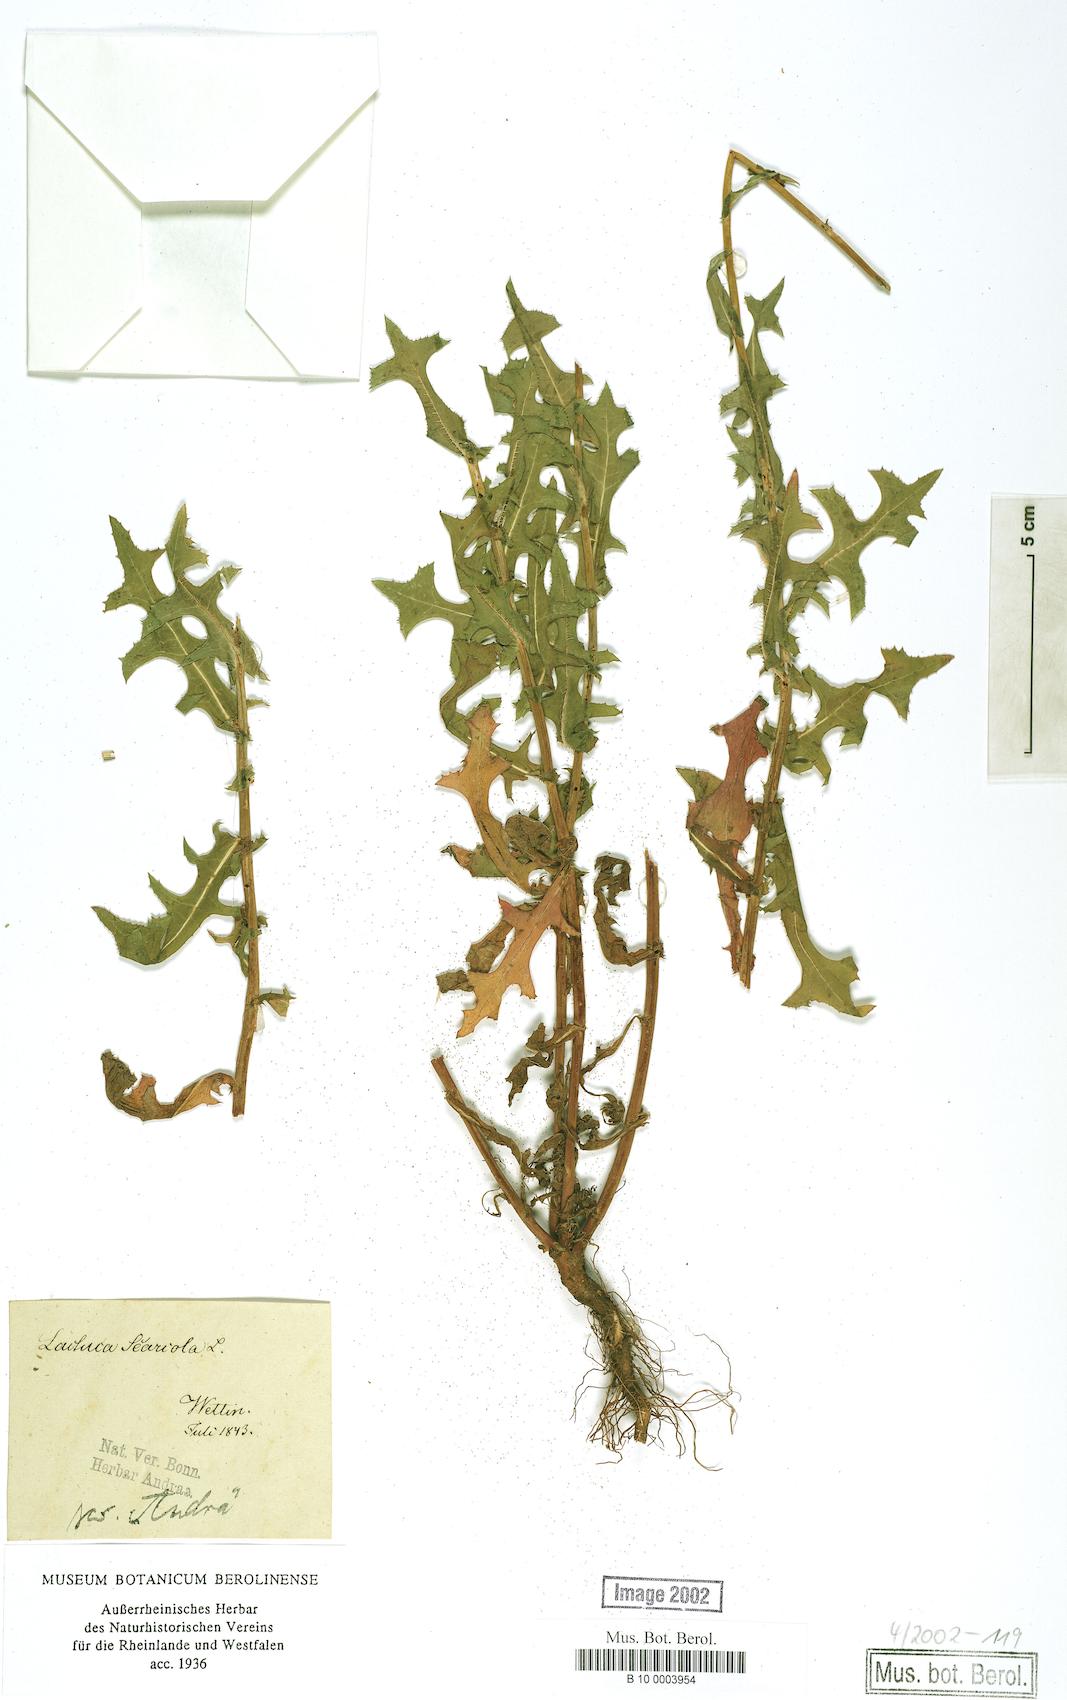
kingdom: Plantae
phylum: Tracheophyta
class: Magnoliopsida
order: Asterales
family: Asteraceae
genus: Lactuca
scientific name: Lactuca serriola
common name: Prickly lettuce
